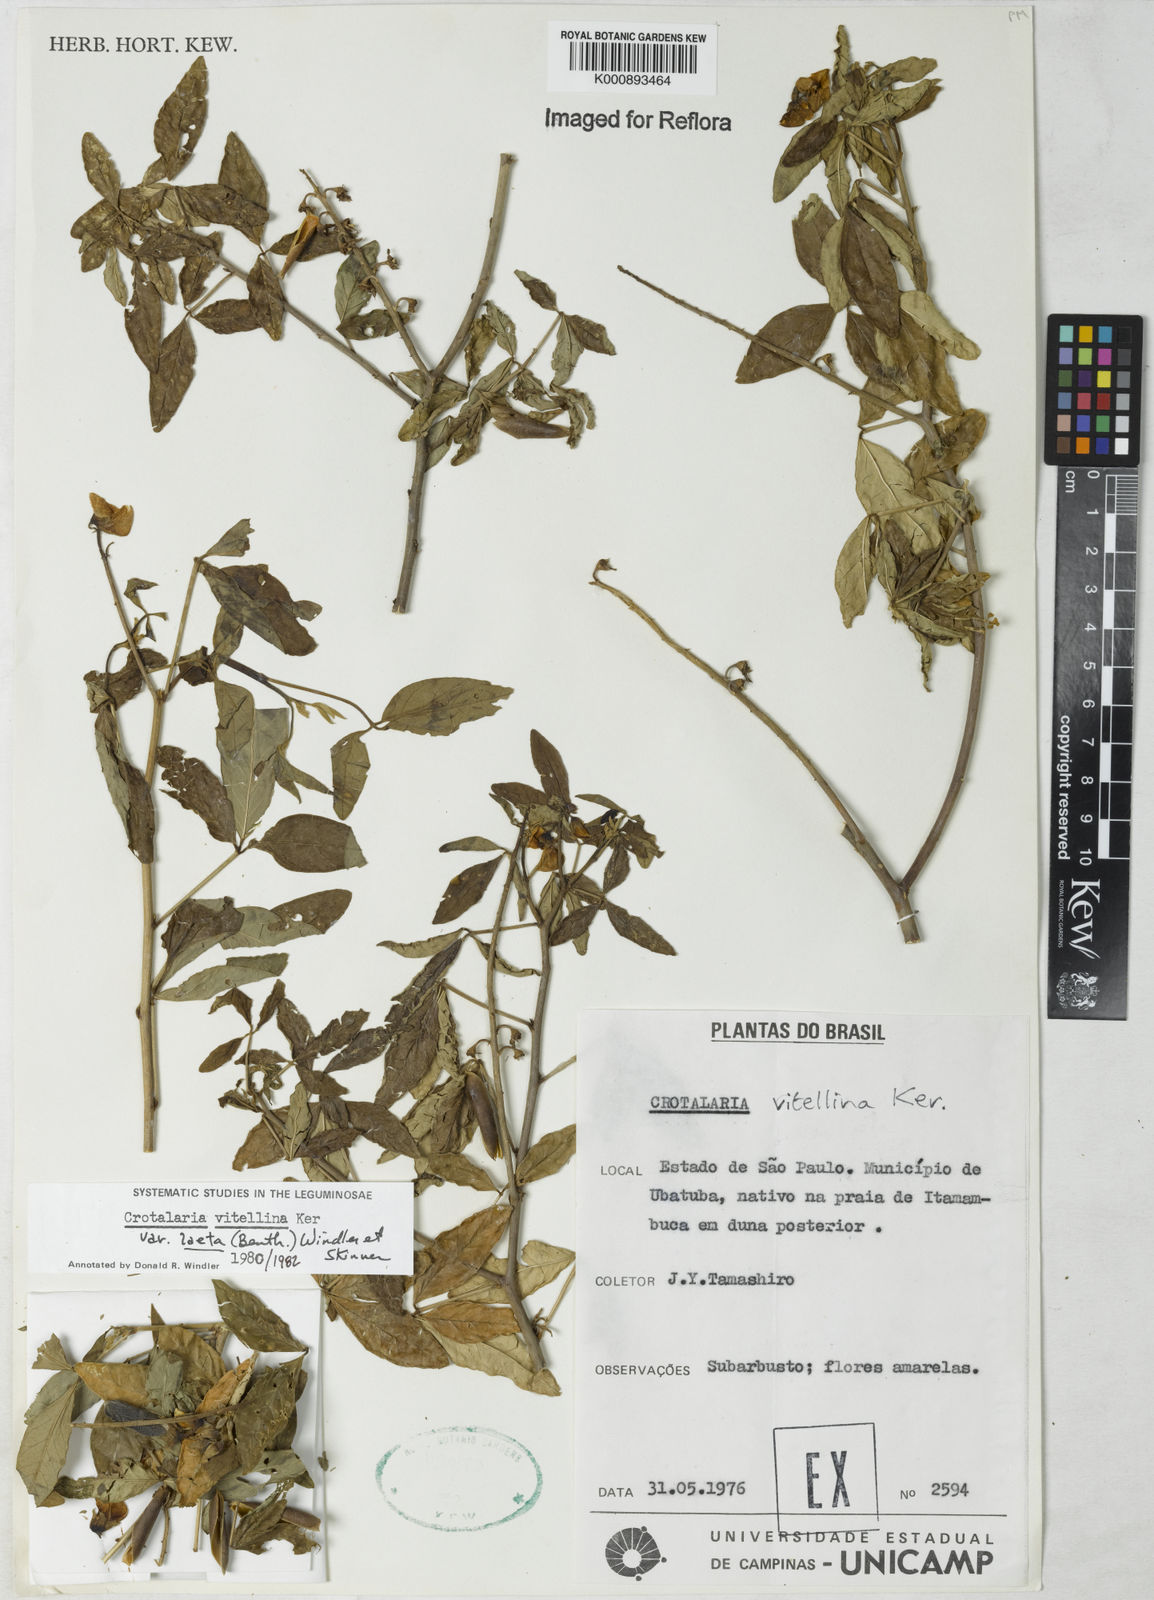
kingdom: Plantae
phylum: Tracheophyta
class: Magnoliopsida
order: Fabales
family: Fabaceae
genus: Crotalaria
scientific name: Crotalaria laeta
